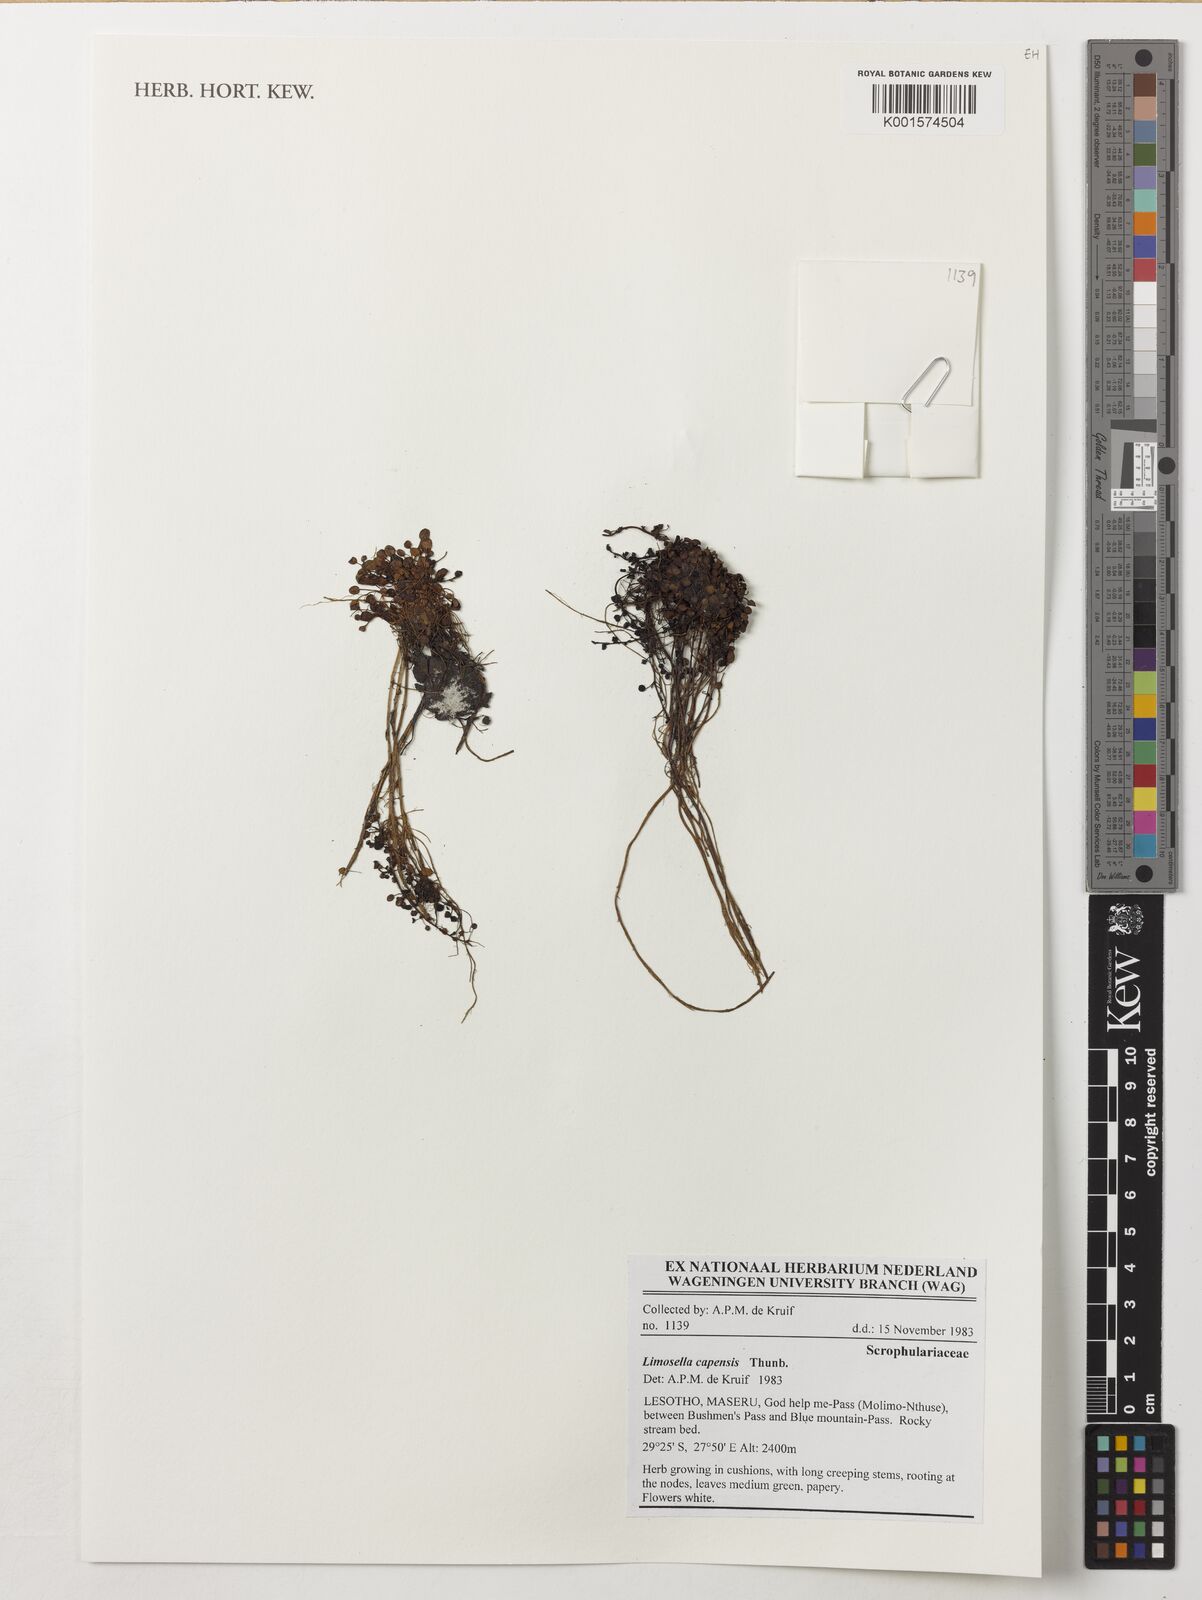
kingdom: Plantae
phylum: Tracheophyta
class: Magnoliopsida
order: Lamiales
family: Scrophulariaceae
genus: Limosella
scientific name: Limosella capensis
